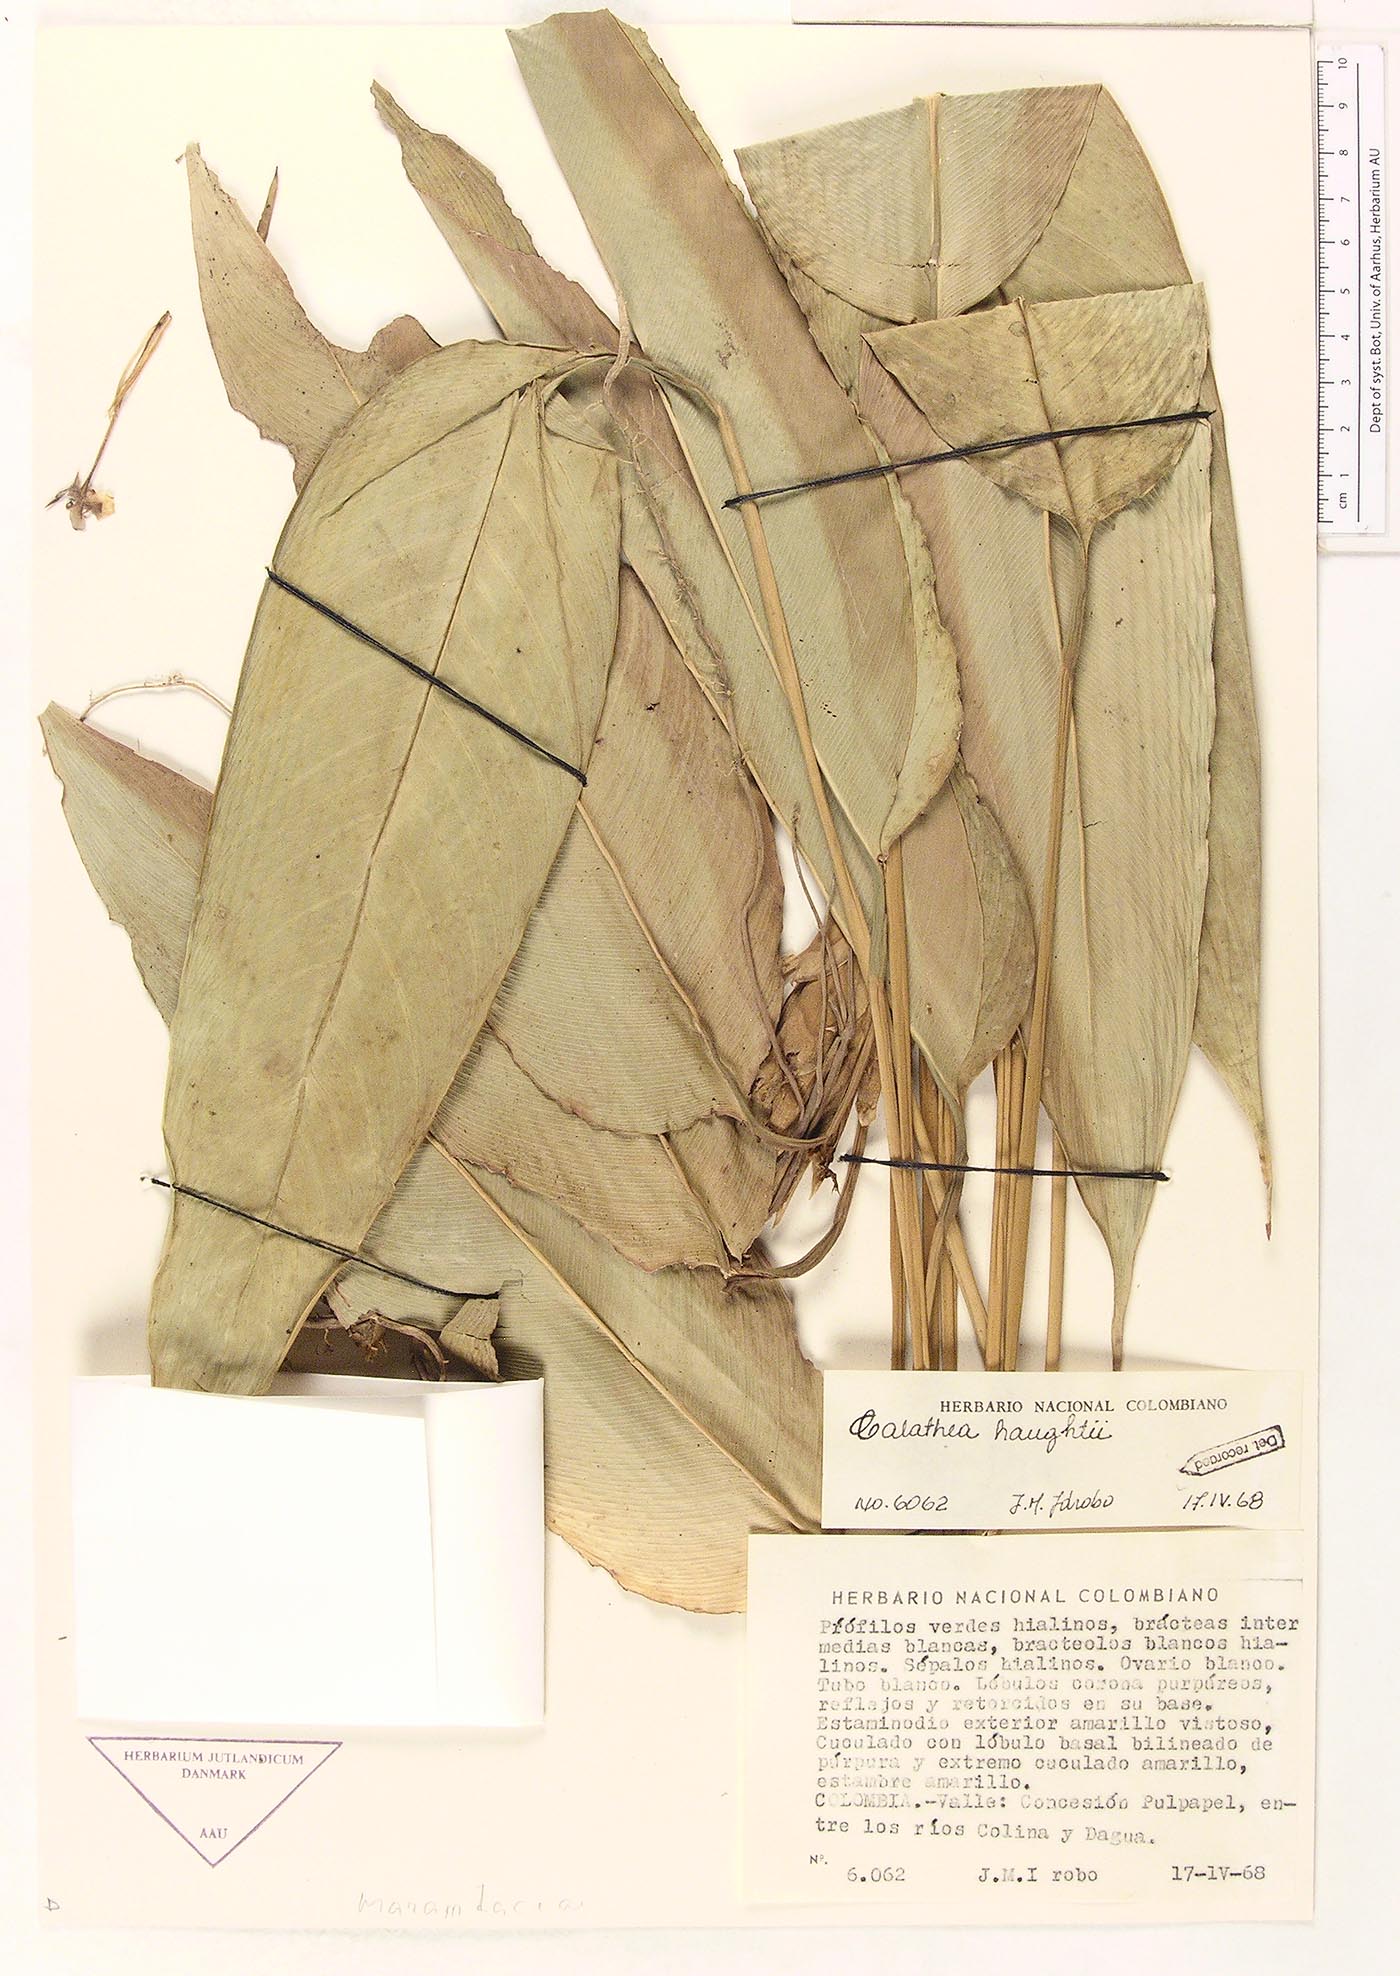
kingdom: Plantae
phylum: Tracheophyta
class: Liliopsida
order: Zingiberales
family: Marantaceae
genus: Calathea
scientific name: Calathea
